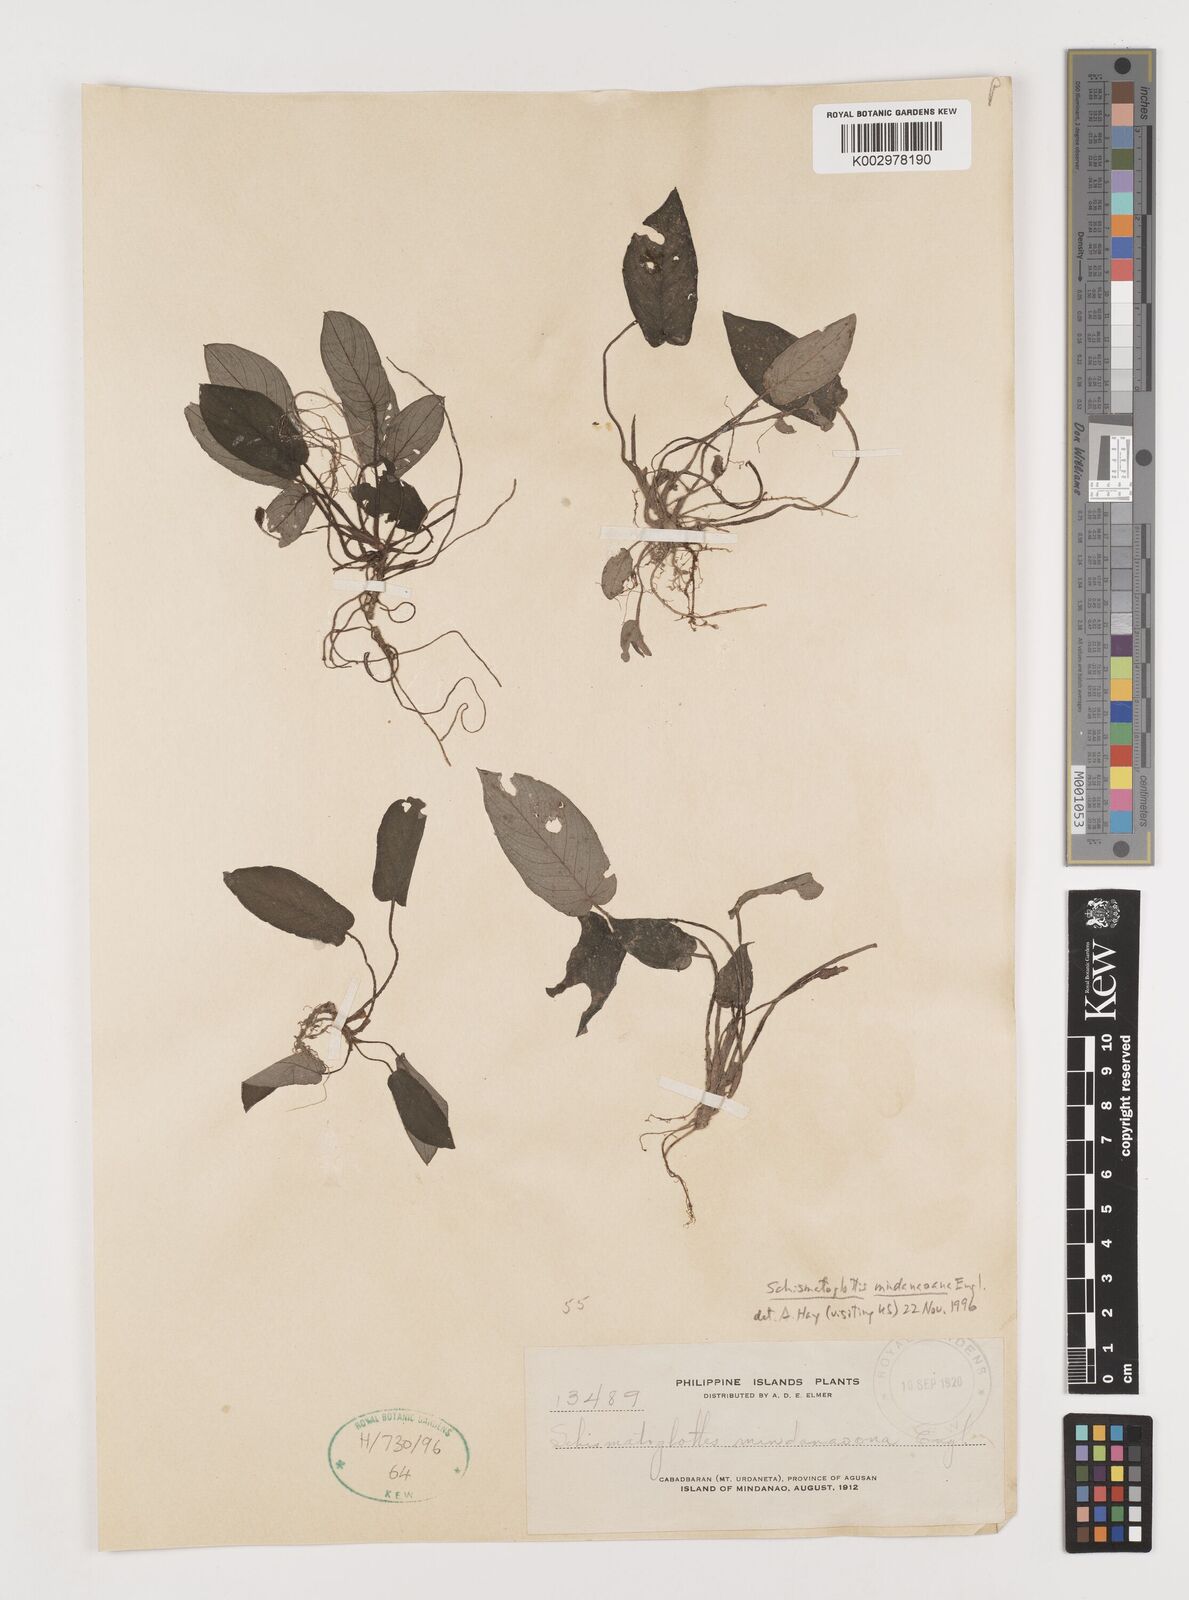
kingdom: Plantae
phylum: Tracheophyta
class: Liliopsida
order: Alismatales
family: Araceae
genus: Schismatoglottis
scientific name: Schismatoglottis mindanaoana
